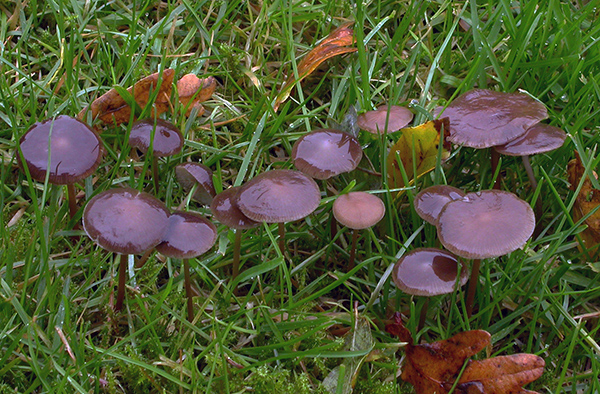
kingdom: Fungi
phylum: Basidiomycota
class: Agaricomycetes
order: Agaricales
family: Physalacriaceae
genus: Strobilurus
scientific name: Strobilurus esculentus
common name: gran-koglehat
